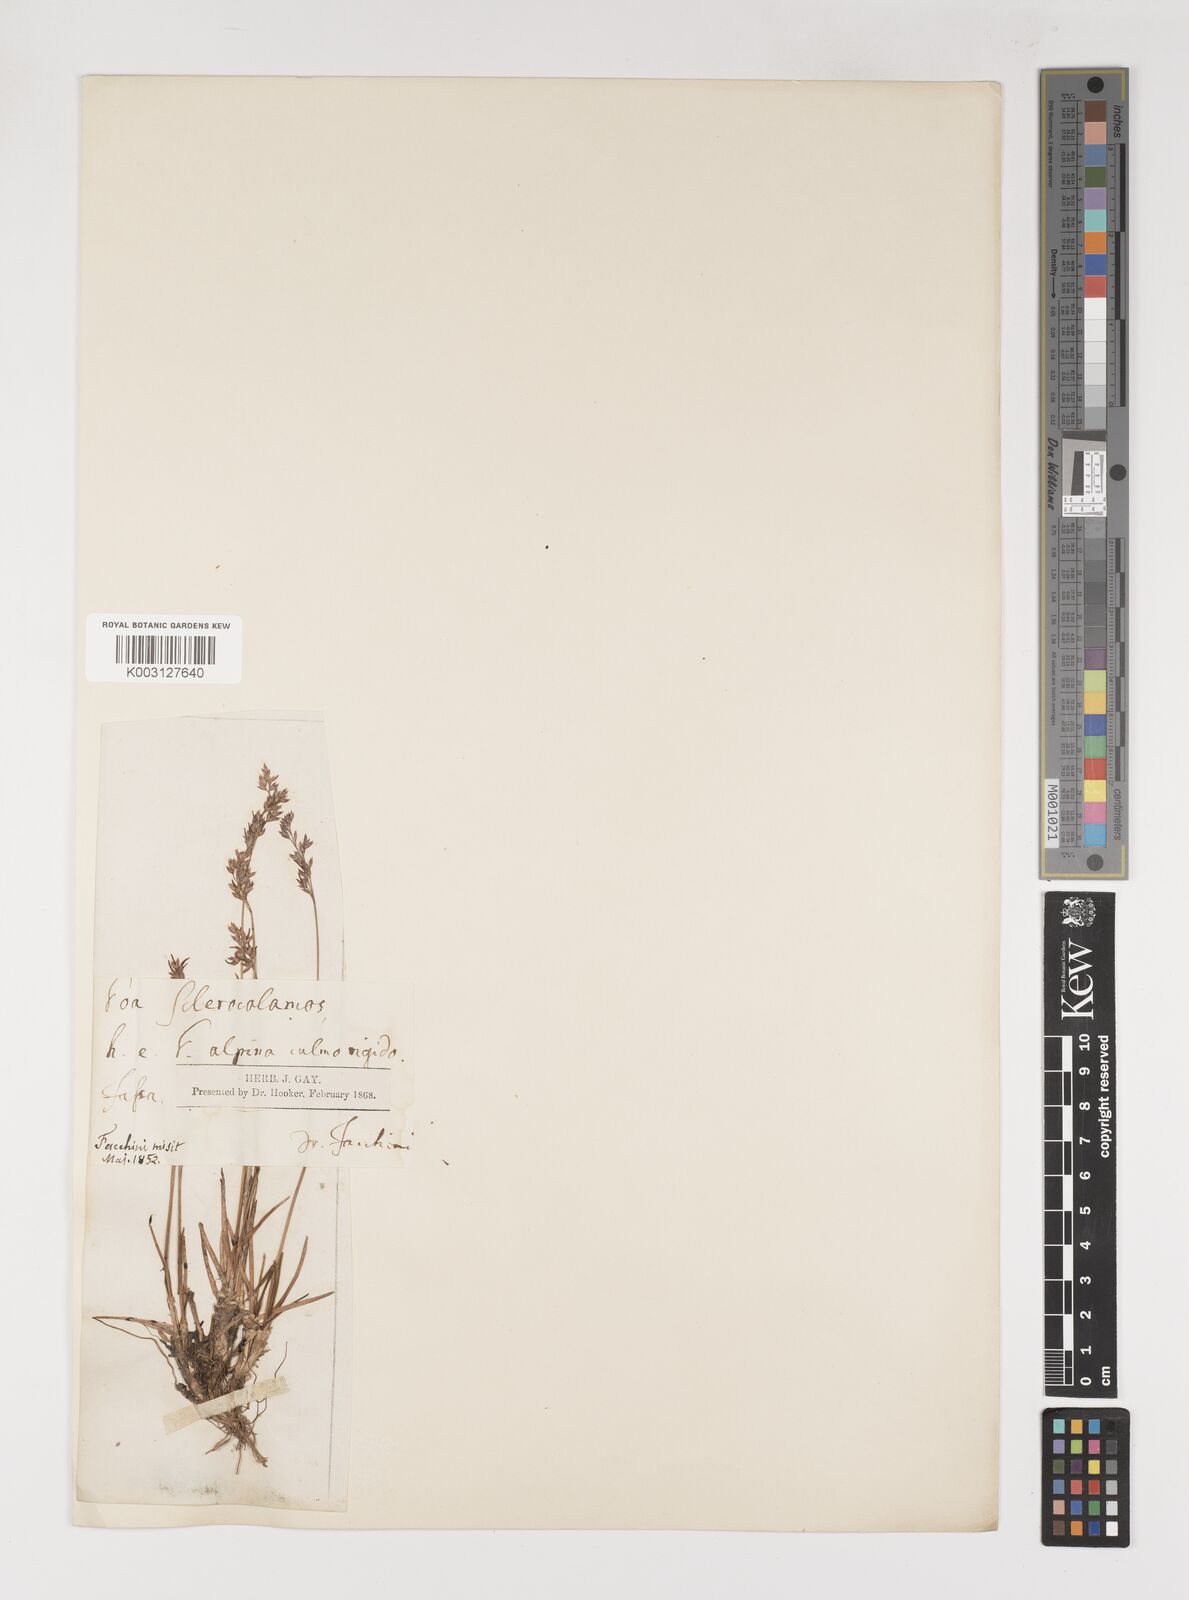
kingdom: Plantae
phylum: Tracheophyta
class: Liliopsida
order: Poales
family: Poaceae
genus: Poa
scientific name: Poa
